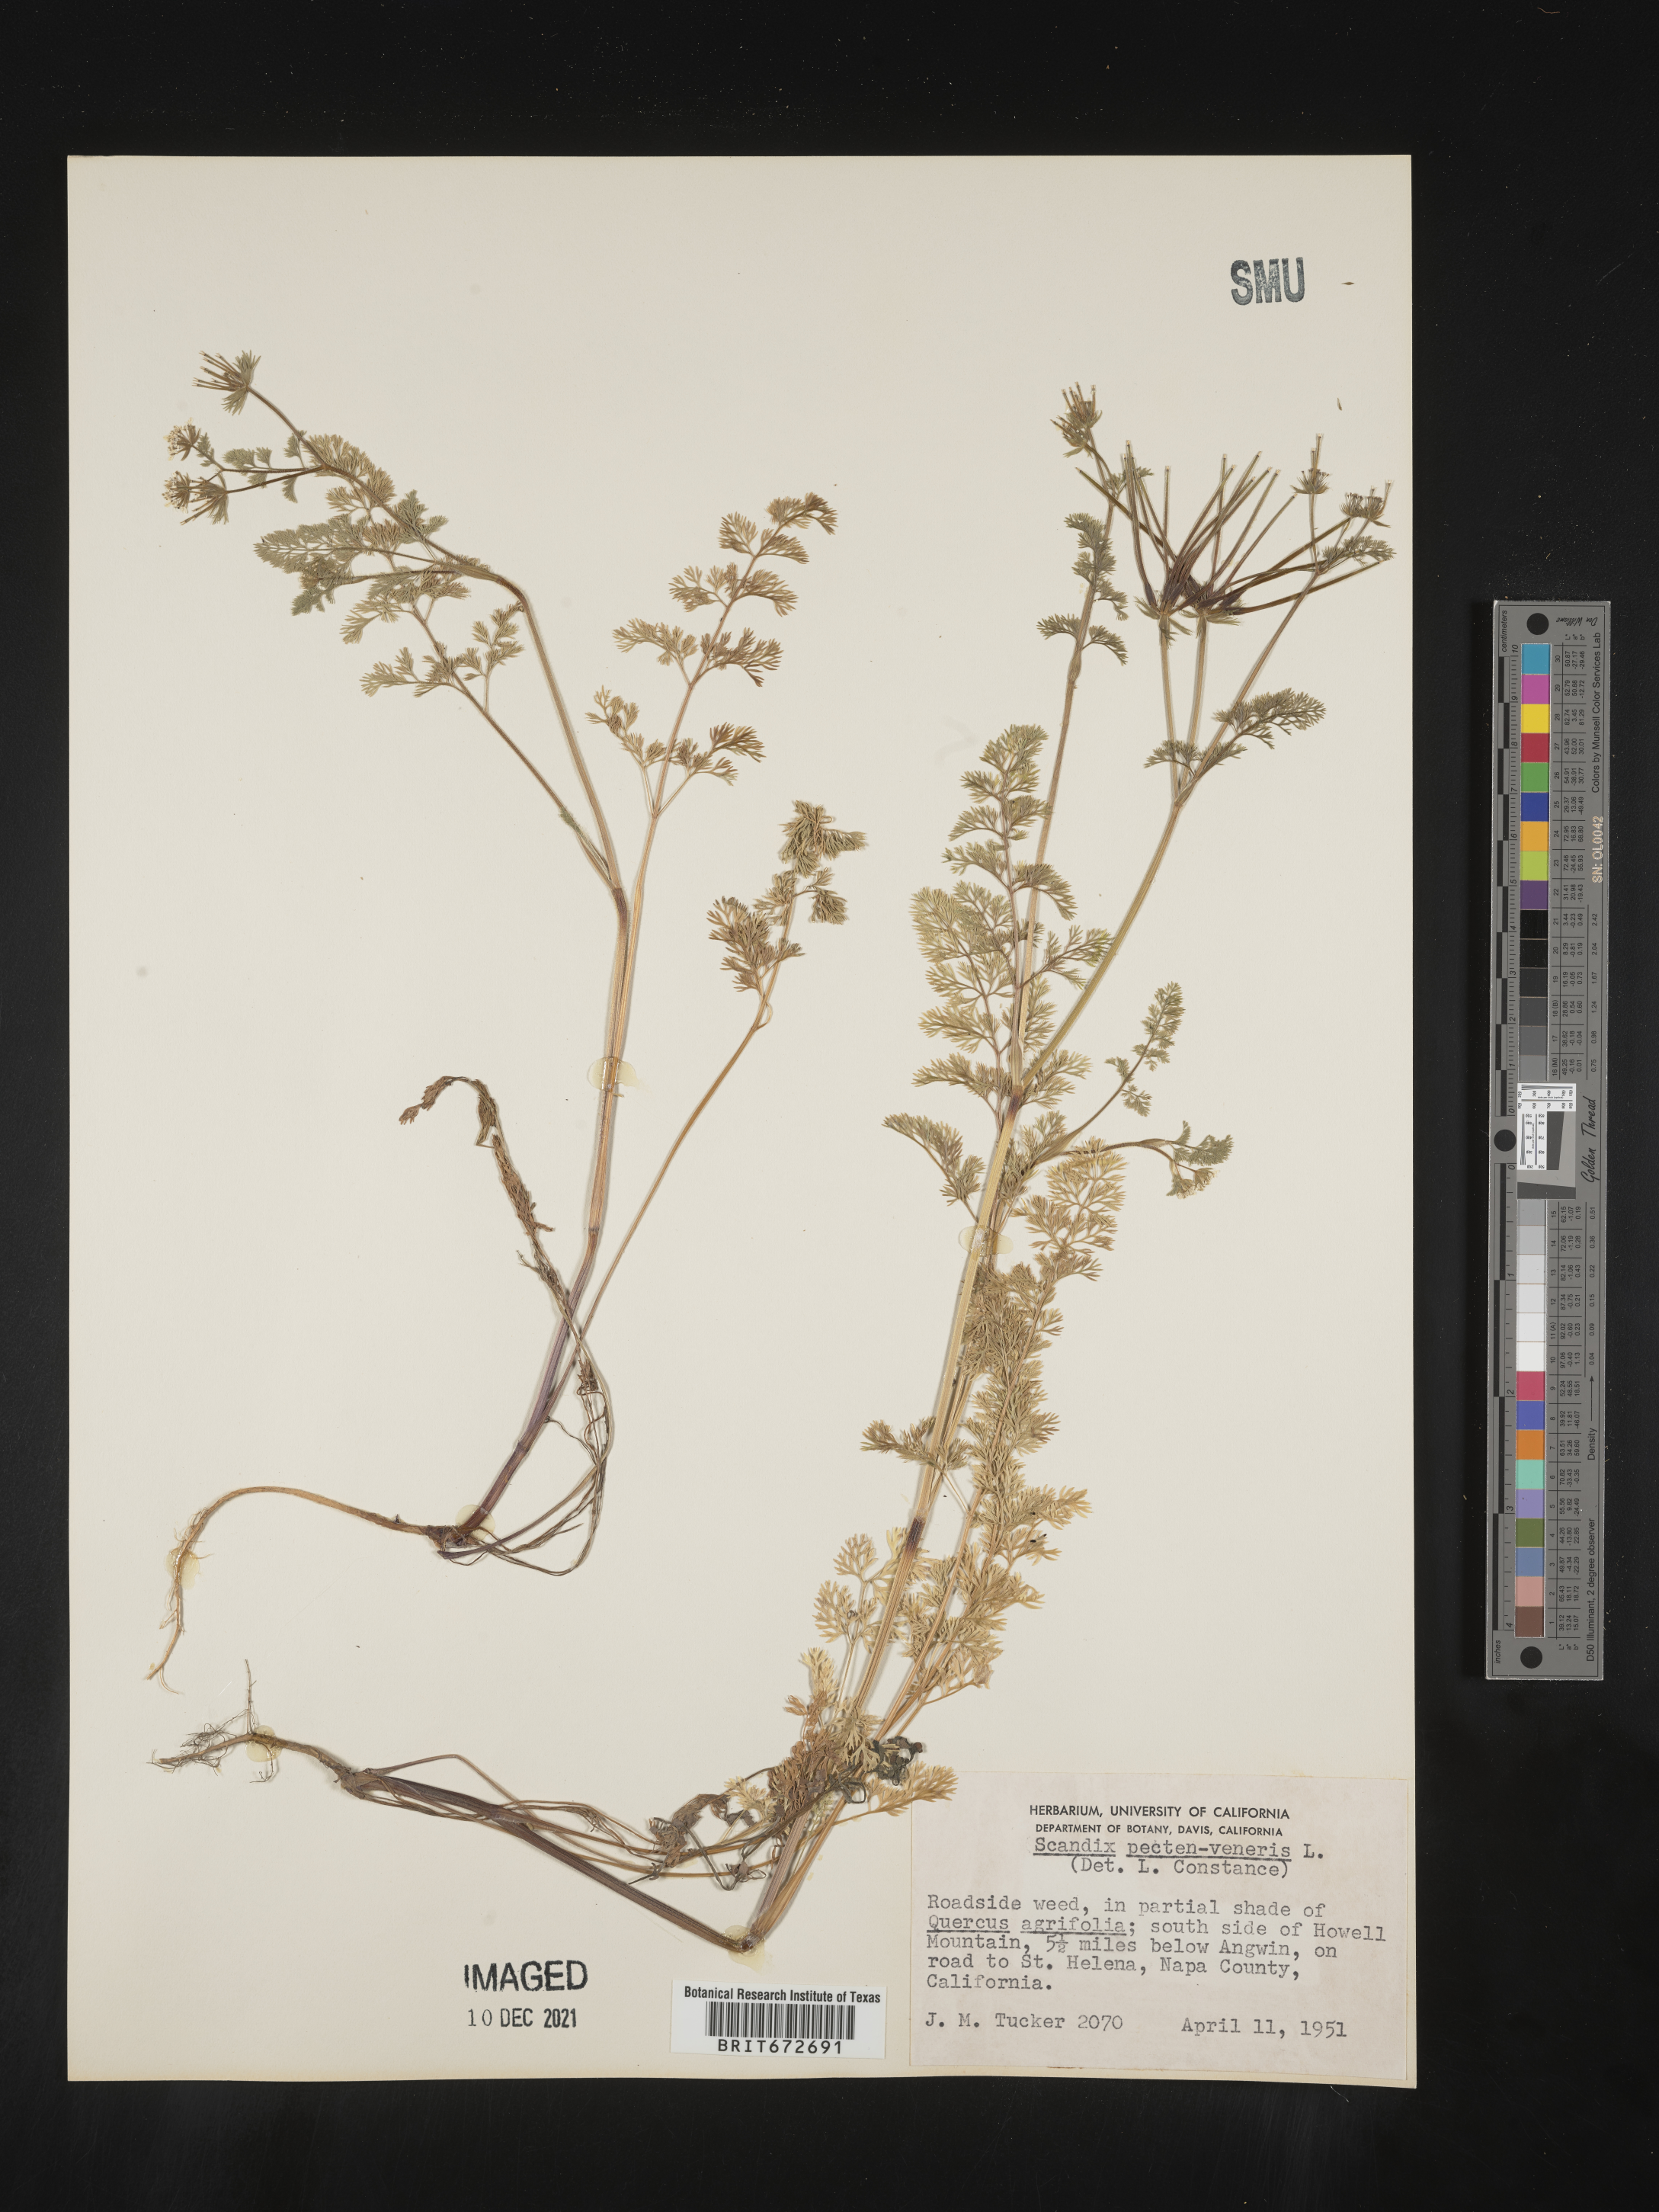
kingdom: Plantae
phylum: Tracheophyta
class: Magnoliopsida
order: Apiales
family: Apiaceae
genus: Scandix
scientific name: Scandix
